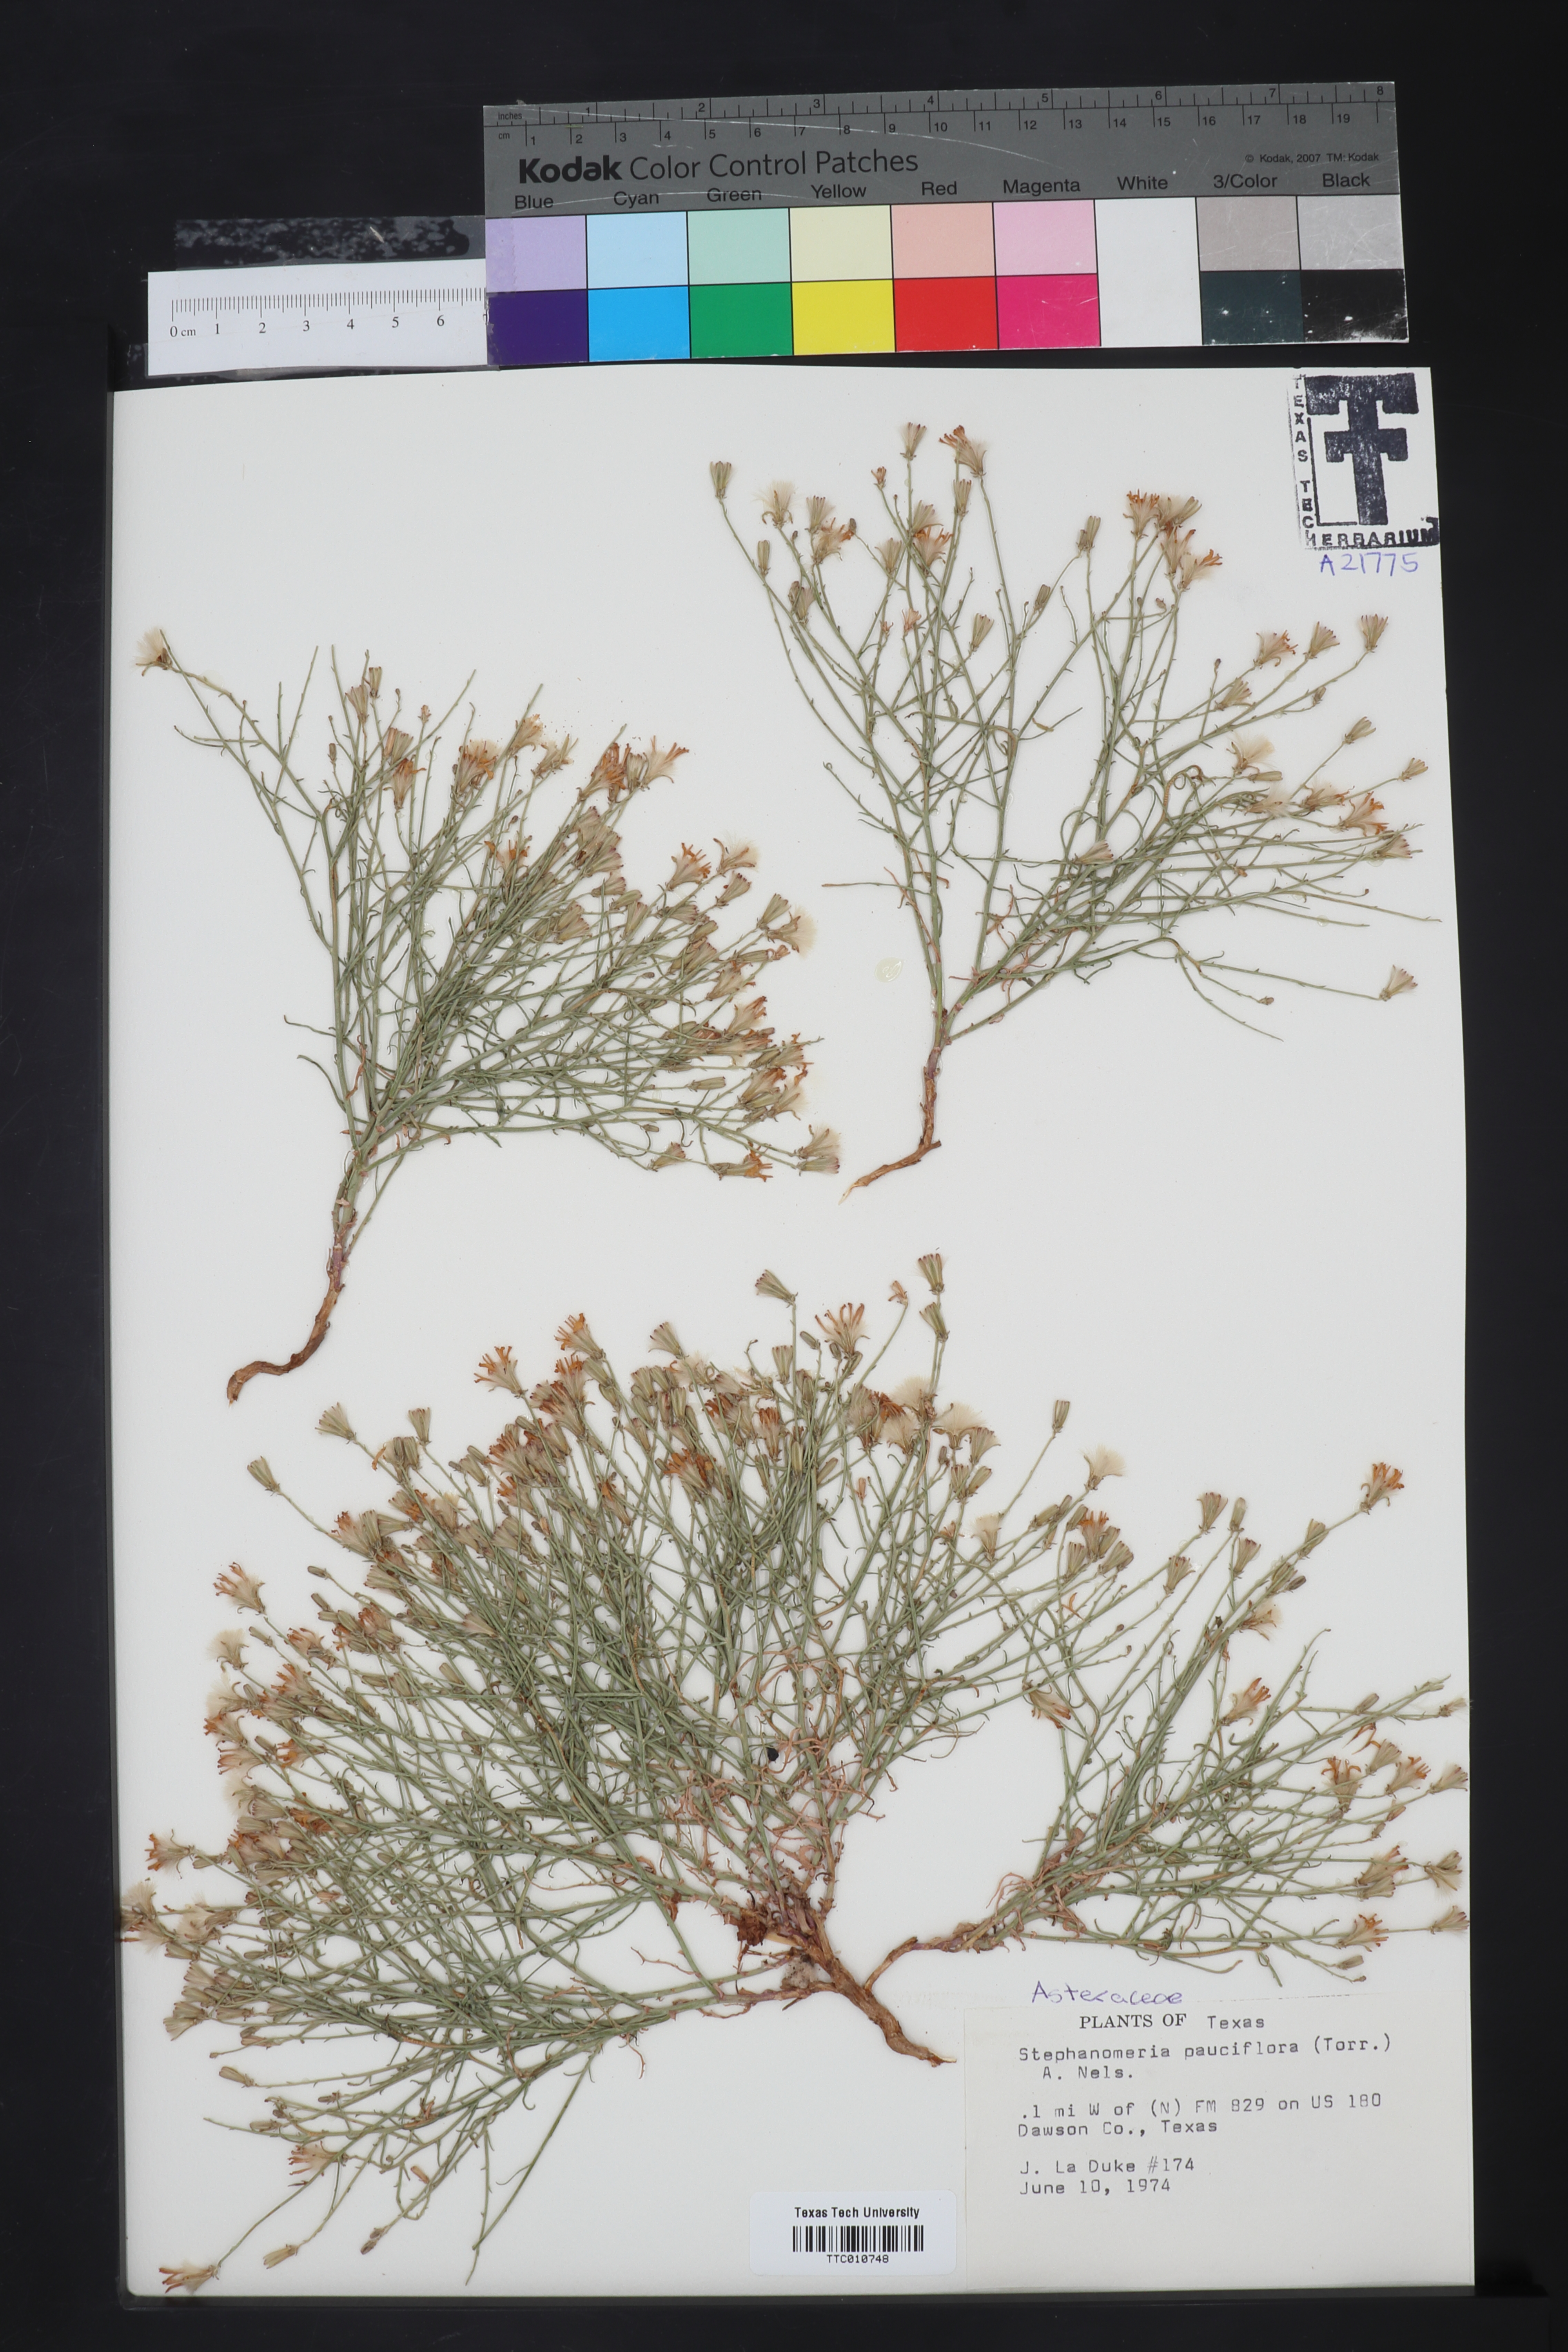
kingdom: Plantae
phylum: Tracheophyta
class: Magnoliopsida
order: Asterales
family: Asteraceae
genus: Stephanomeria
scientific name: Stephanomeria pauciflora
